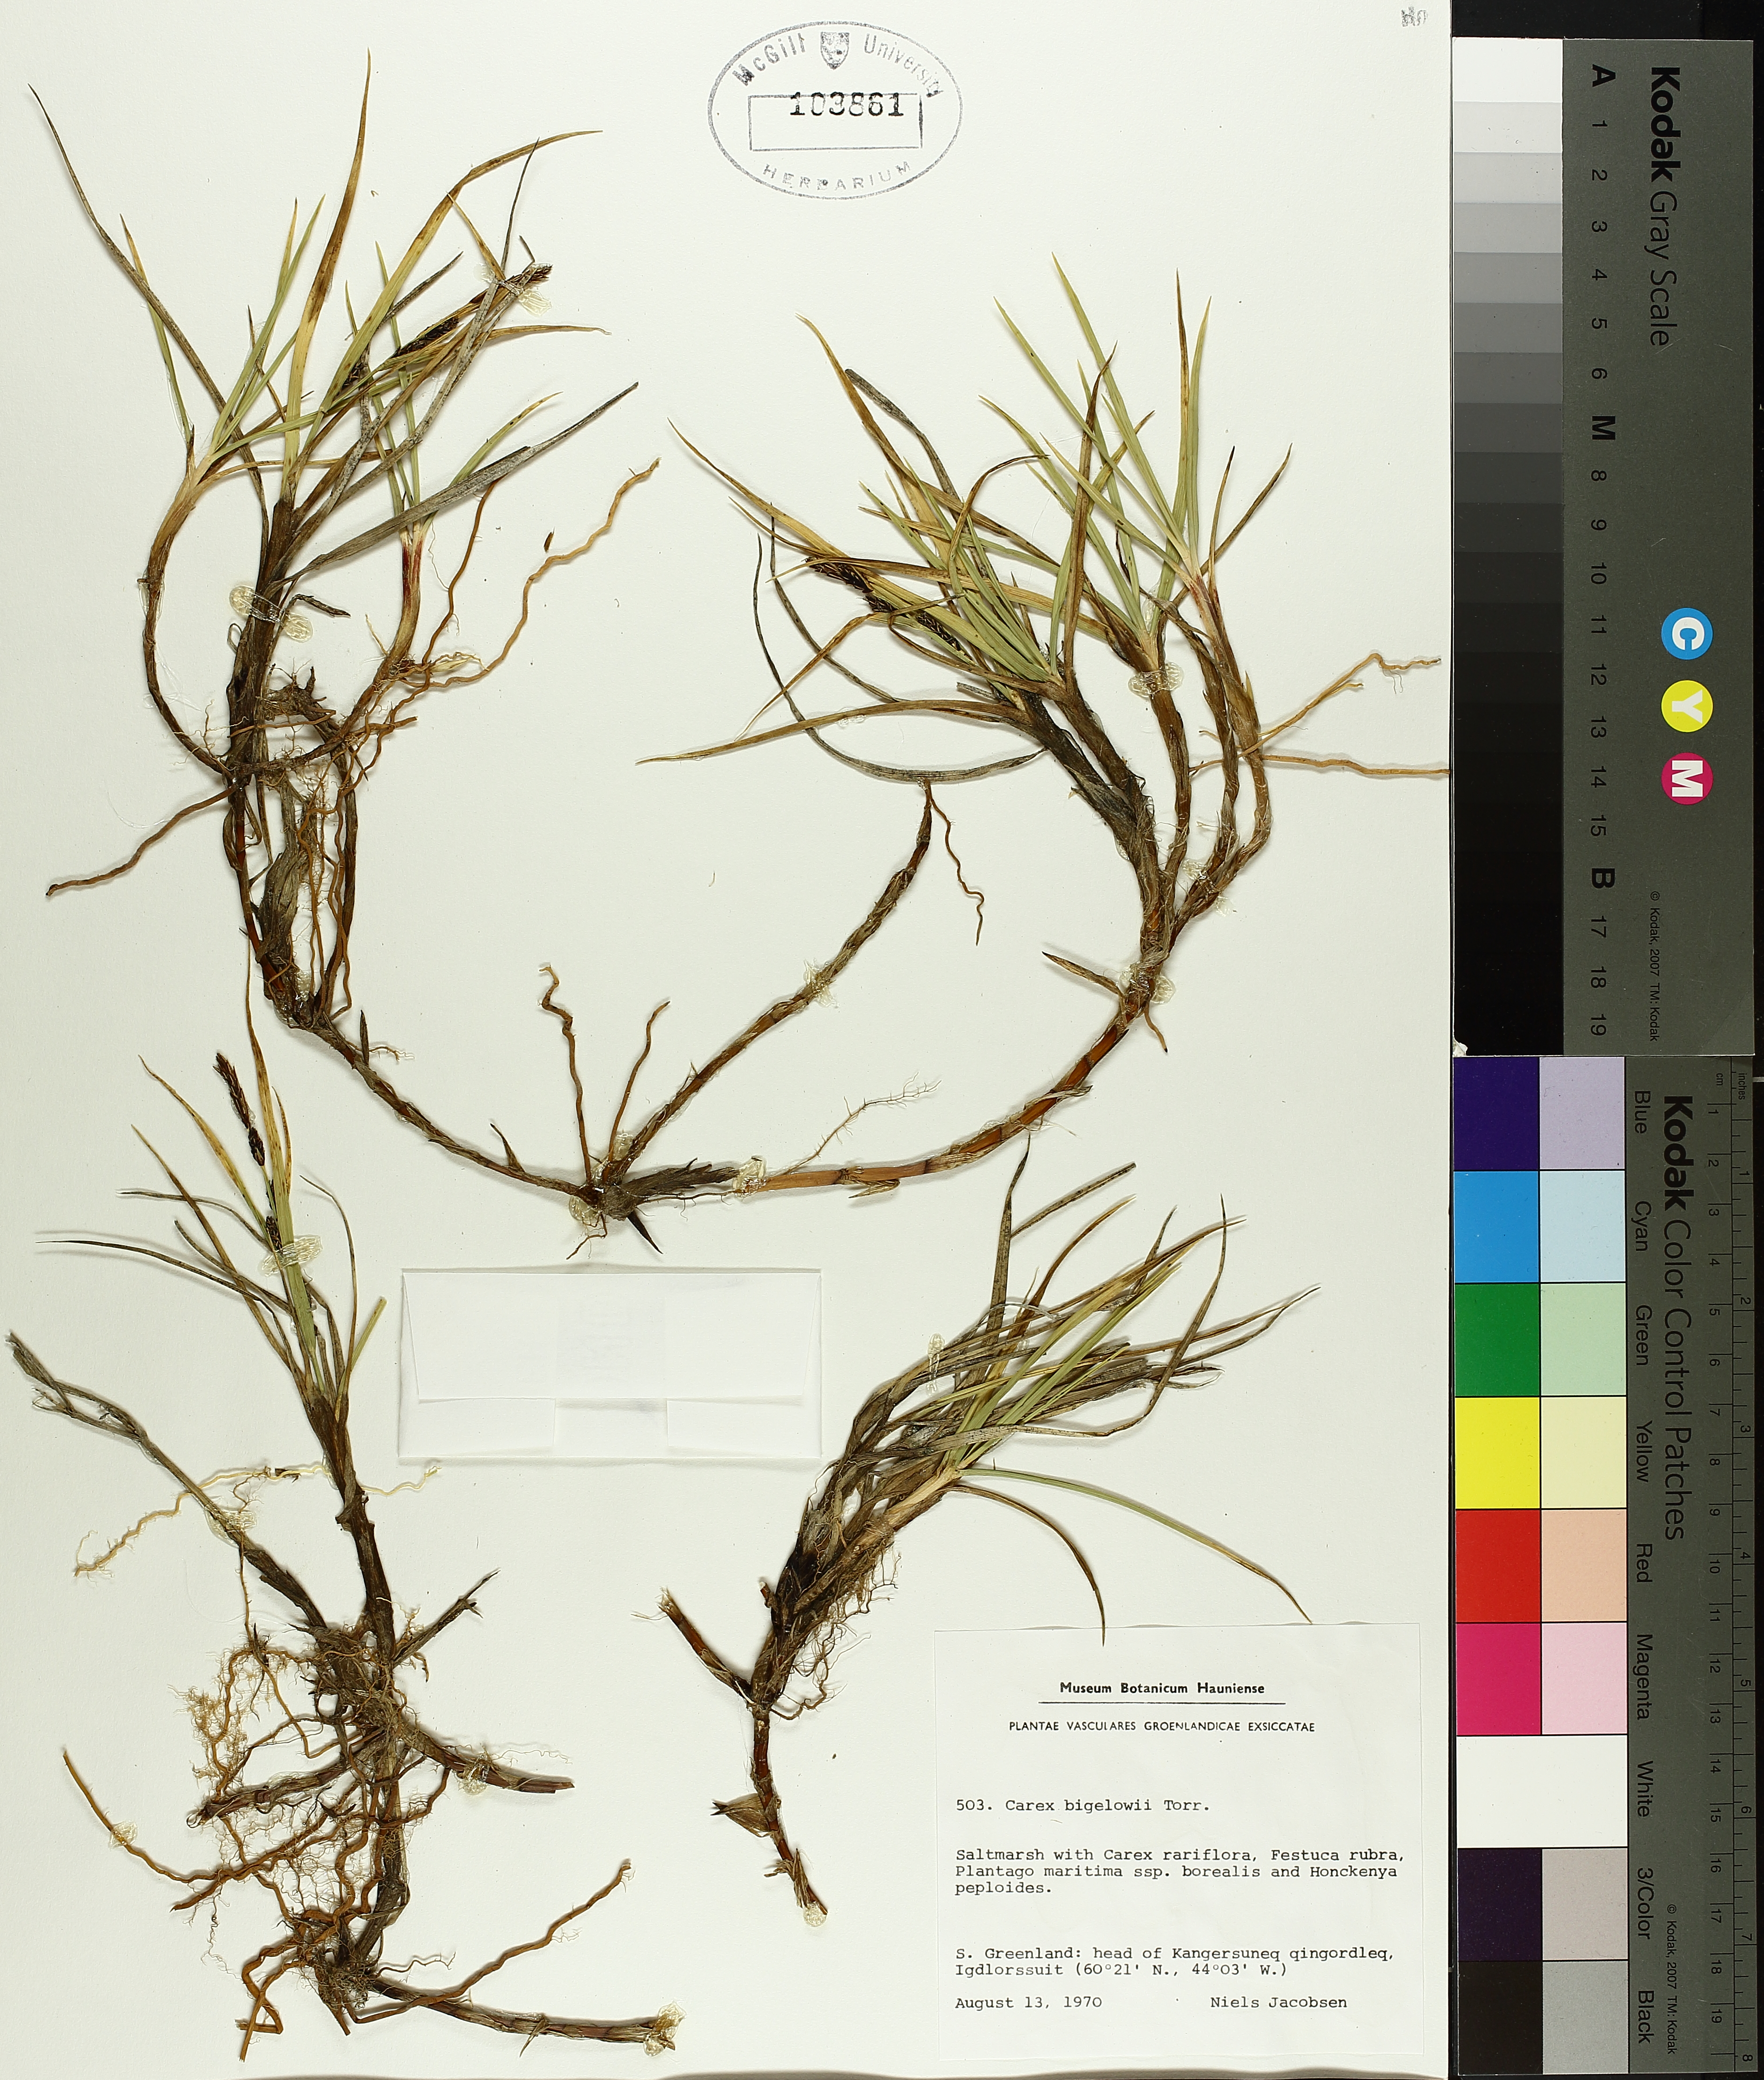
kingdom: Plantae
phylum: Tracheophyta
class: Liliopsida
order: Poales
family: Cyperaceae
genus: Carex
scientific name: Carex dacica
